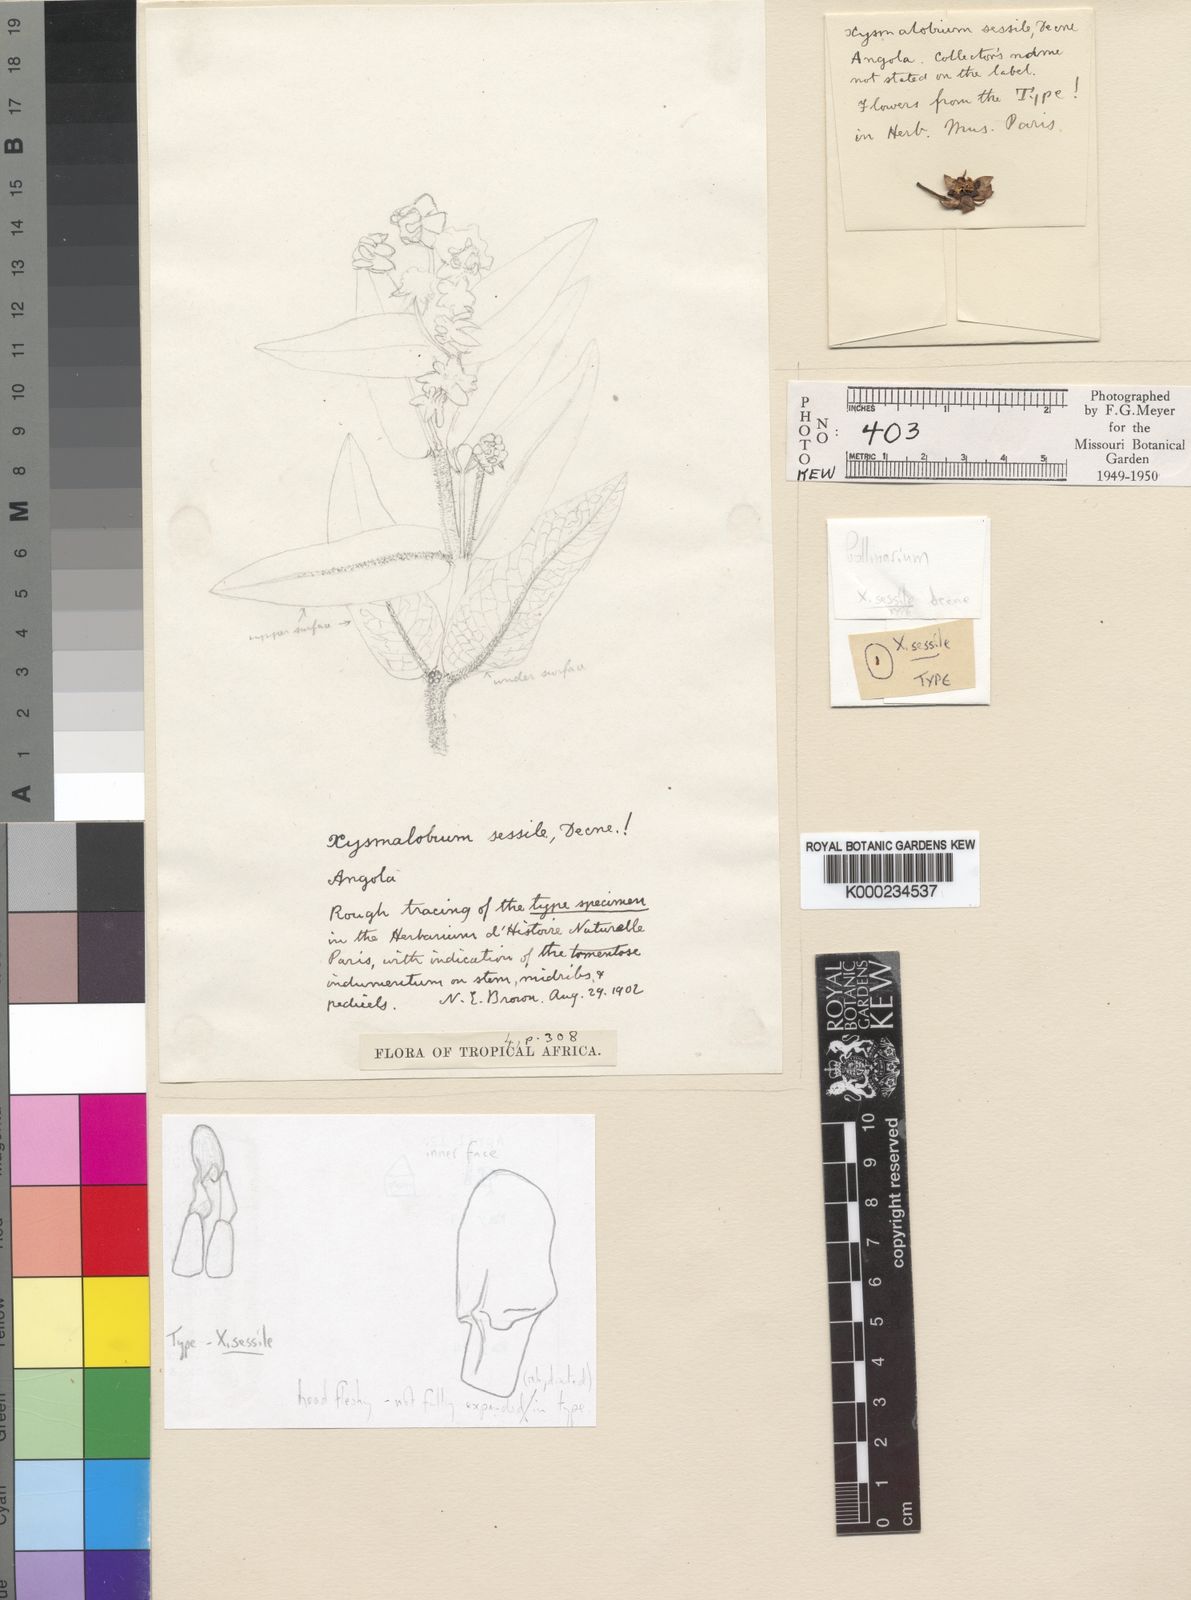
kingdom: Plantae
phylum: Tracheophyta
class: Magnoliopsida
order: Gentianales
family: Apocynaceae
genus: Xysmalobium
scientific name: Xysmalobium sessile
